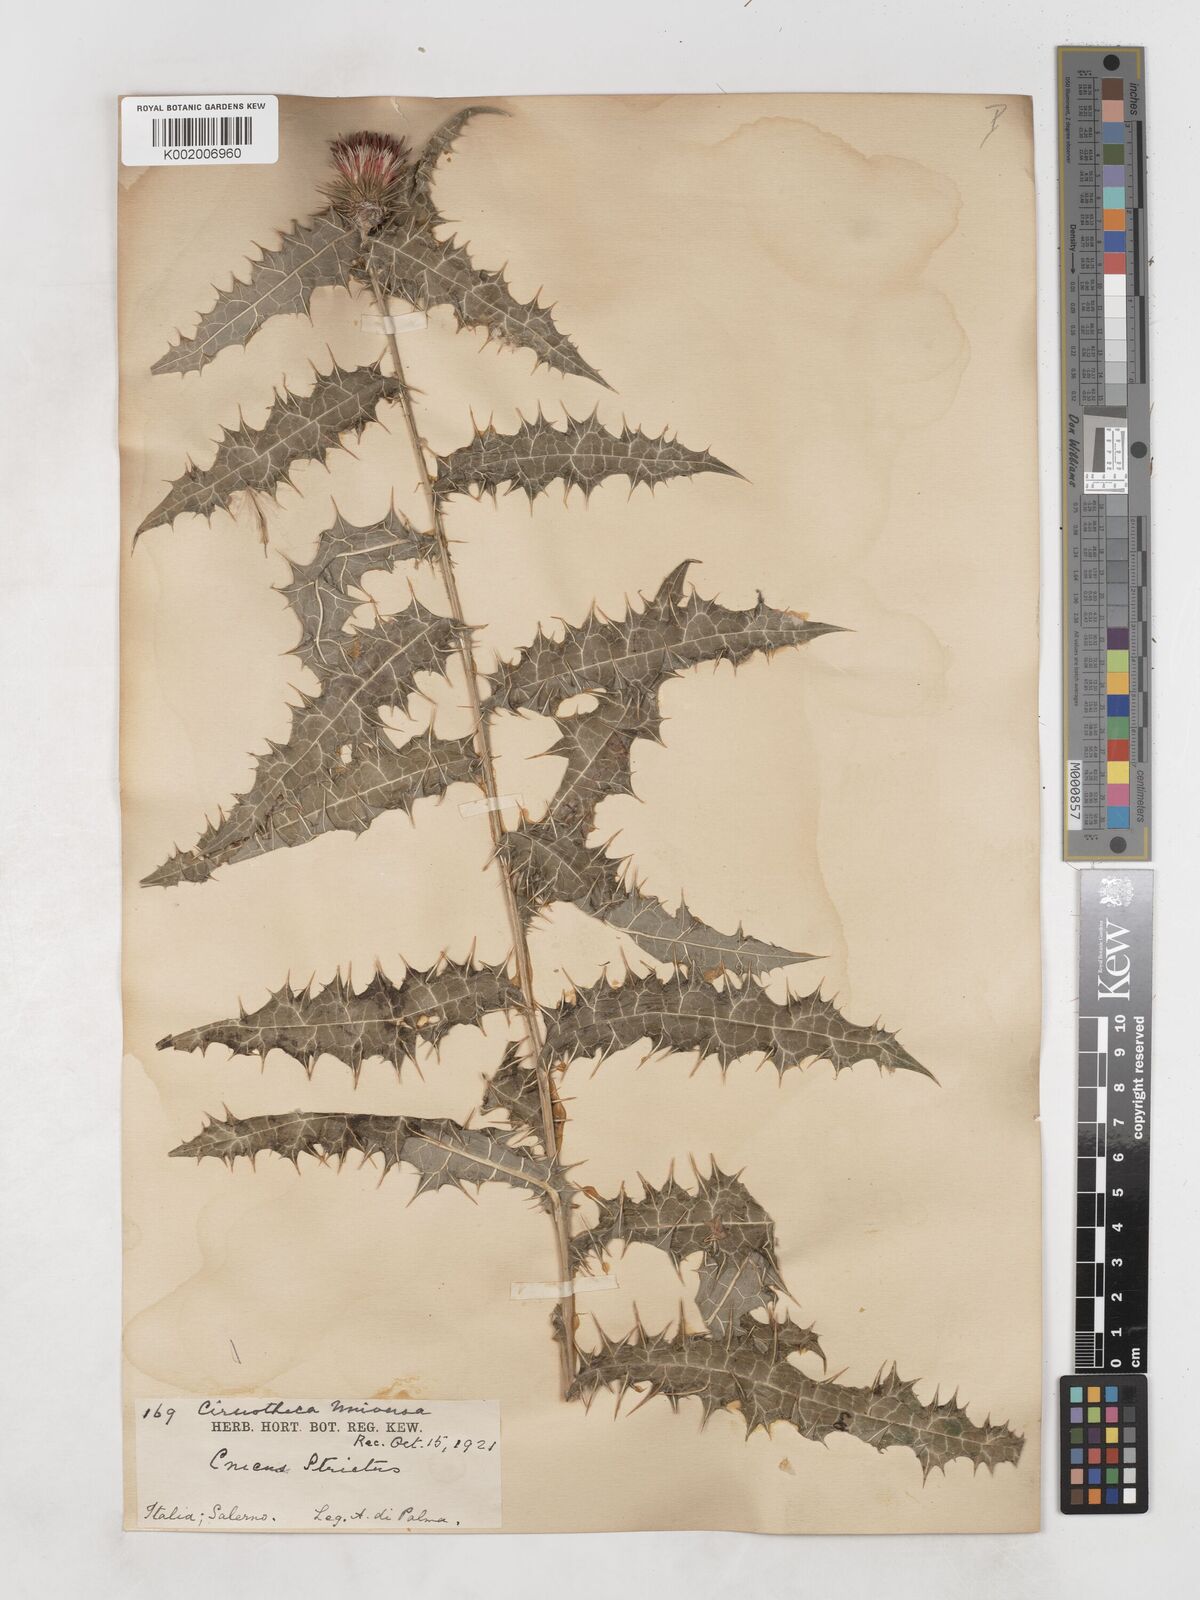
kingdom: Plantae
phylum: Tracheophyta
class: Magnoliopsida
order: Asterales
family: Asteraceae
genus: Ptilostemon
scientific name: Ptilostemon strictus
